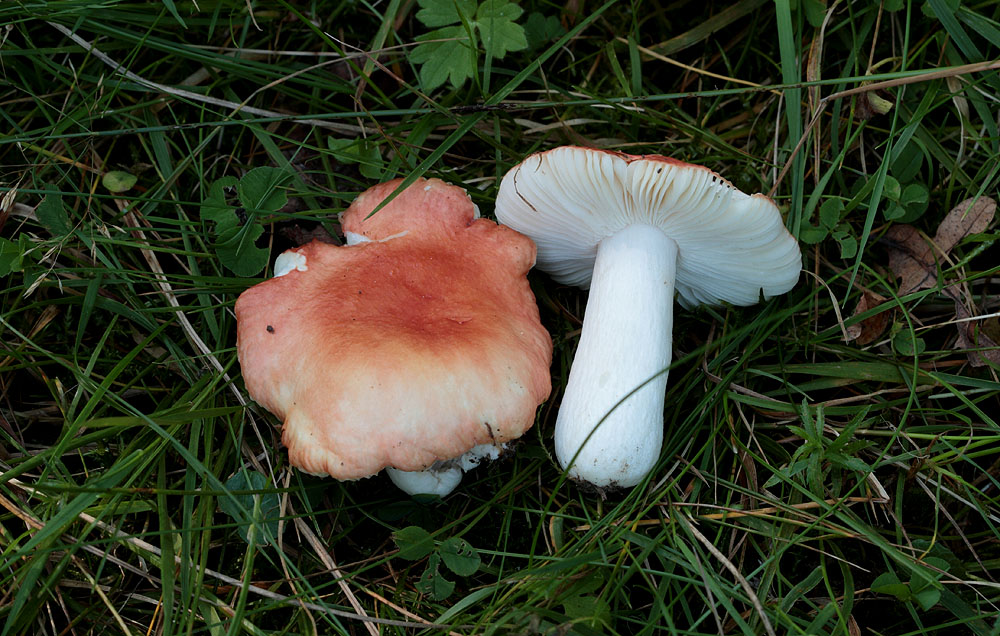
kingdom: Fungi
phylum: Basidiomycota
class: Agaricomycetes
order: Russulales
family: Russulaceae
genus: Russula
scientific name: Russula pseudointegra
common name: cinnoberrød skørhat
